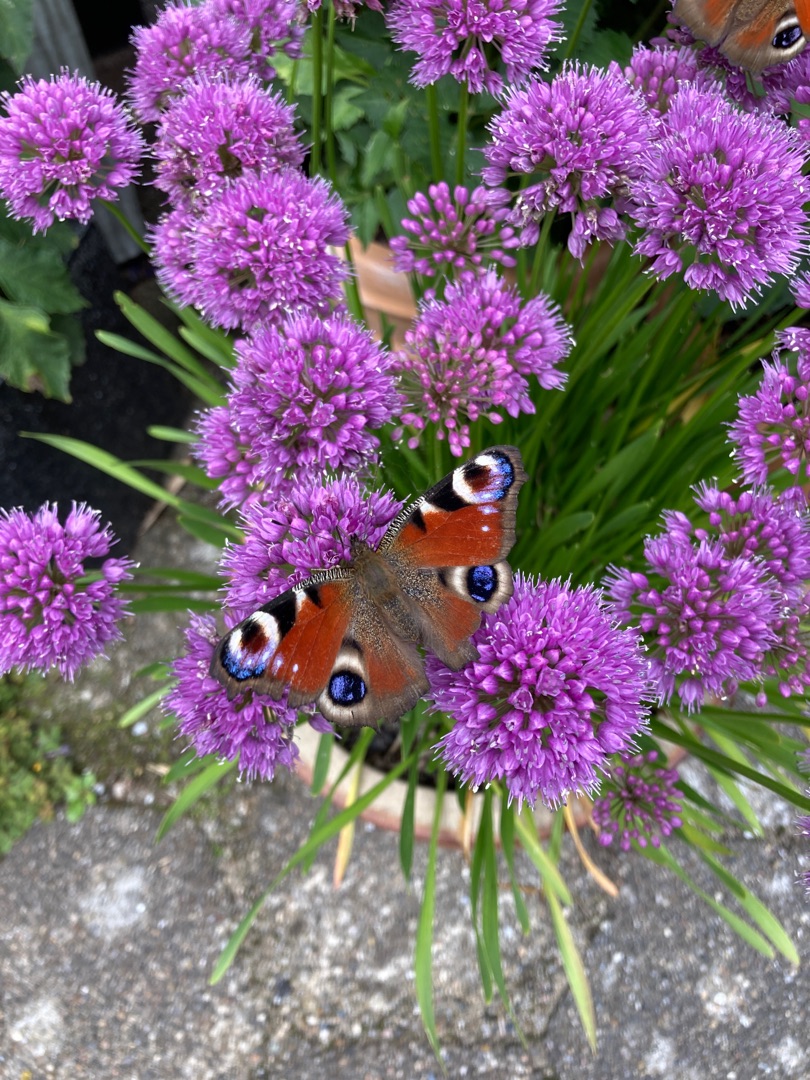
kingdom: Animalia
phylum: Arthropoda
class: Insecta
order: Lepidoptera
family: Nymphalidae
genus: Aglais
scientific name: Aglais io
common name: Dagpåfugleøje
